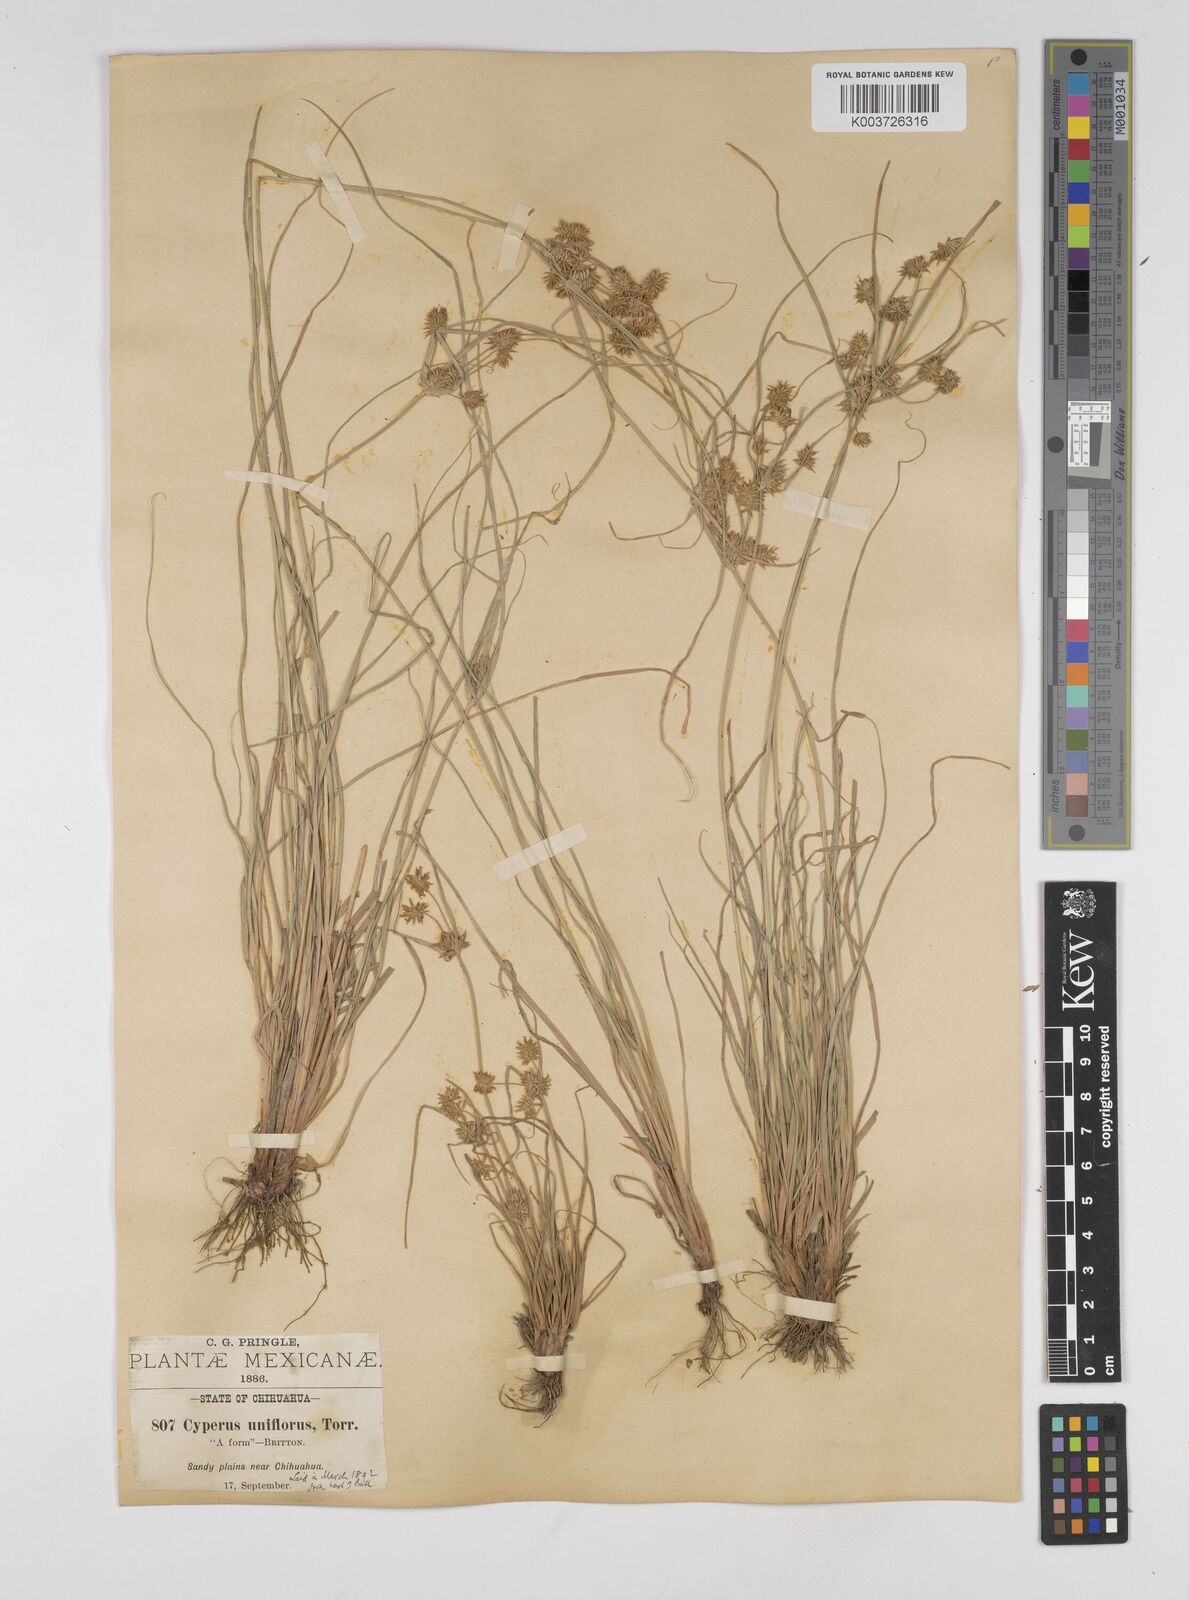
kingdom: Plantae
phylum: Tracheophyta
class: Liliopsida
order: Poales
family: Cyperaceae
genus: Cyperus
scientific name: Cyperus retroflexus
